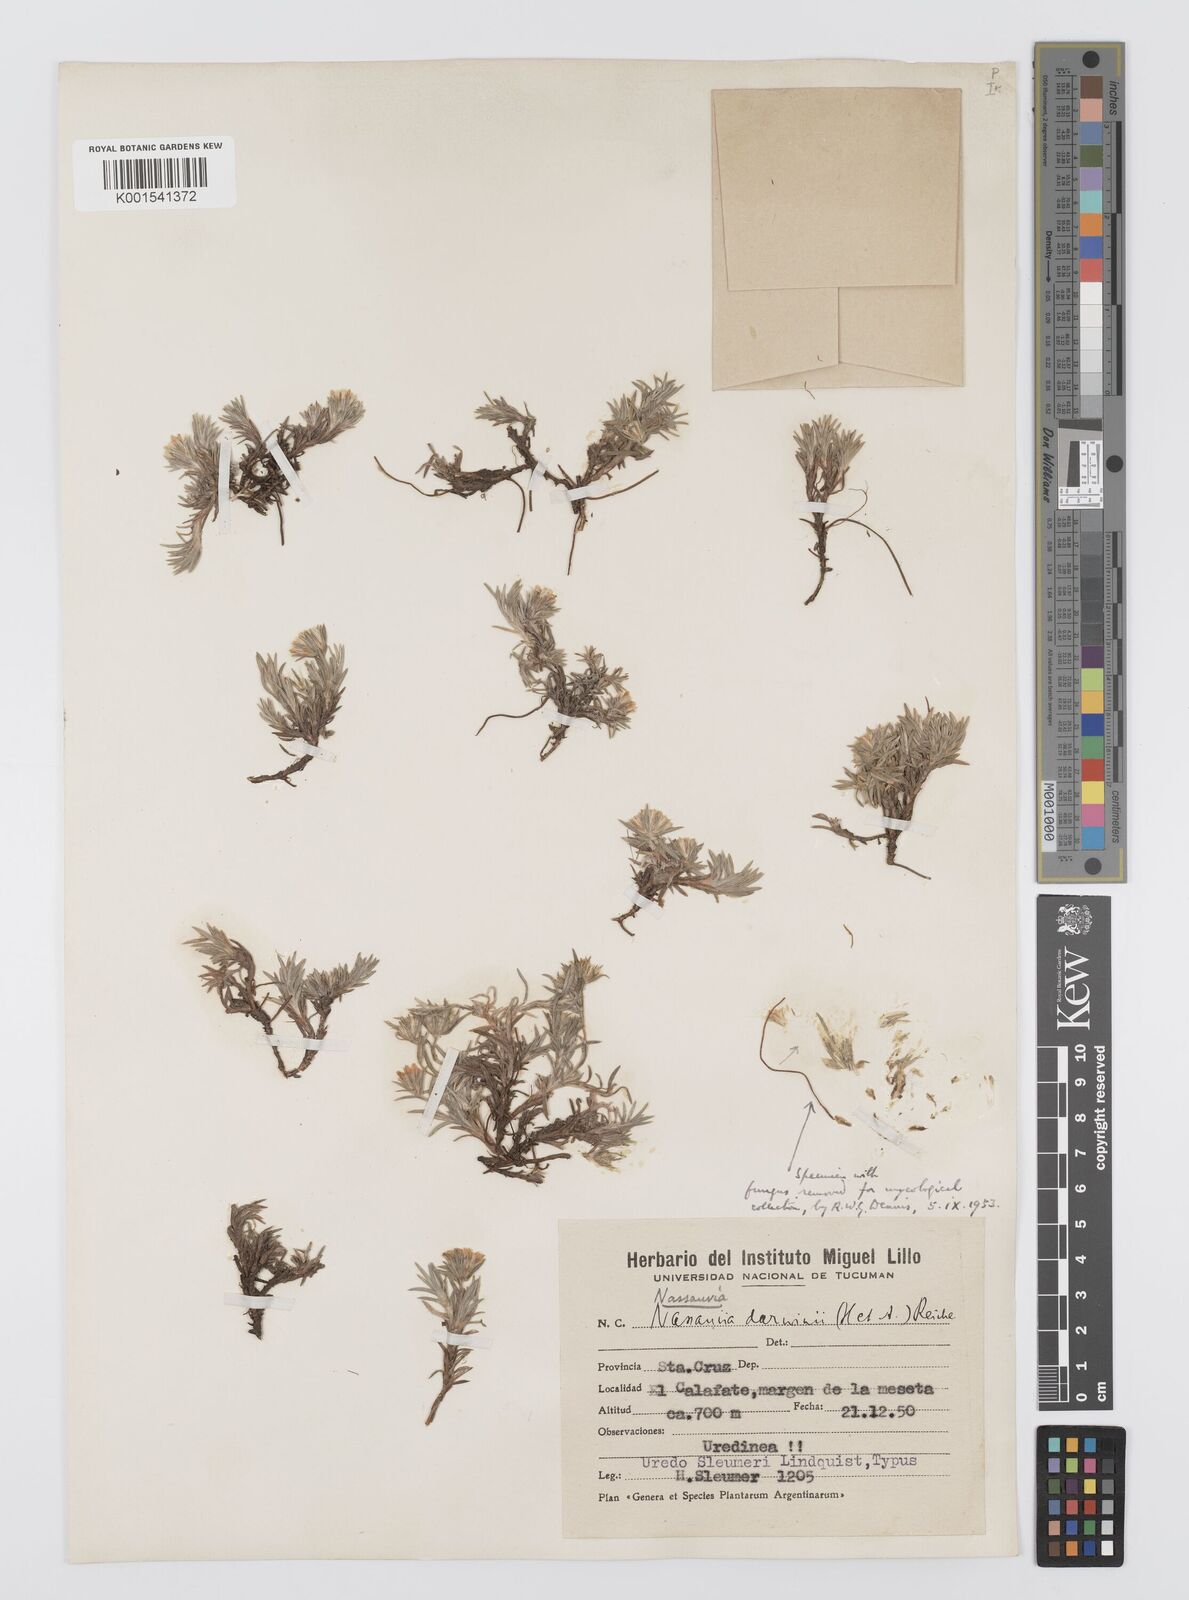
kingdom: Plantae
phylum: Tracheophyta
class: Magnoliopsida
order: Asterales
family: Asteraceae
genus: Nassauvia
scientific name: Nassauvia darwinii
